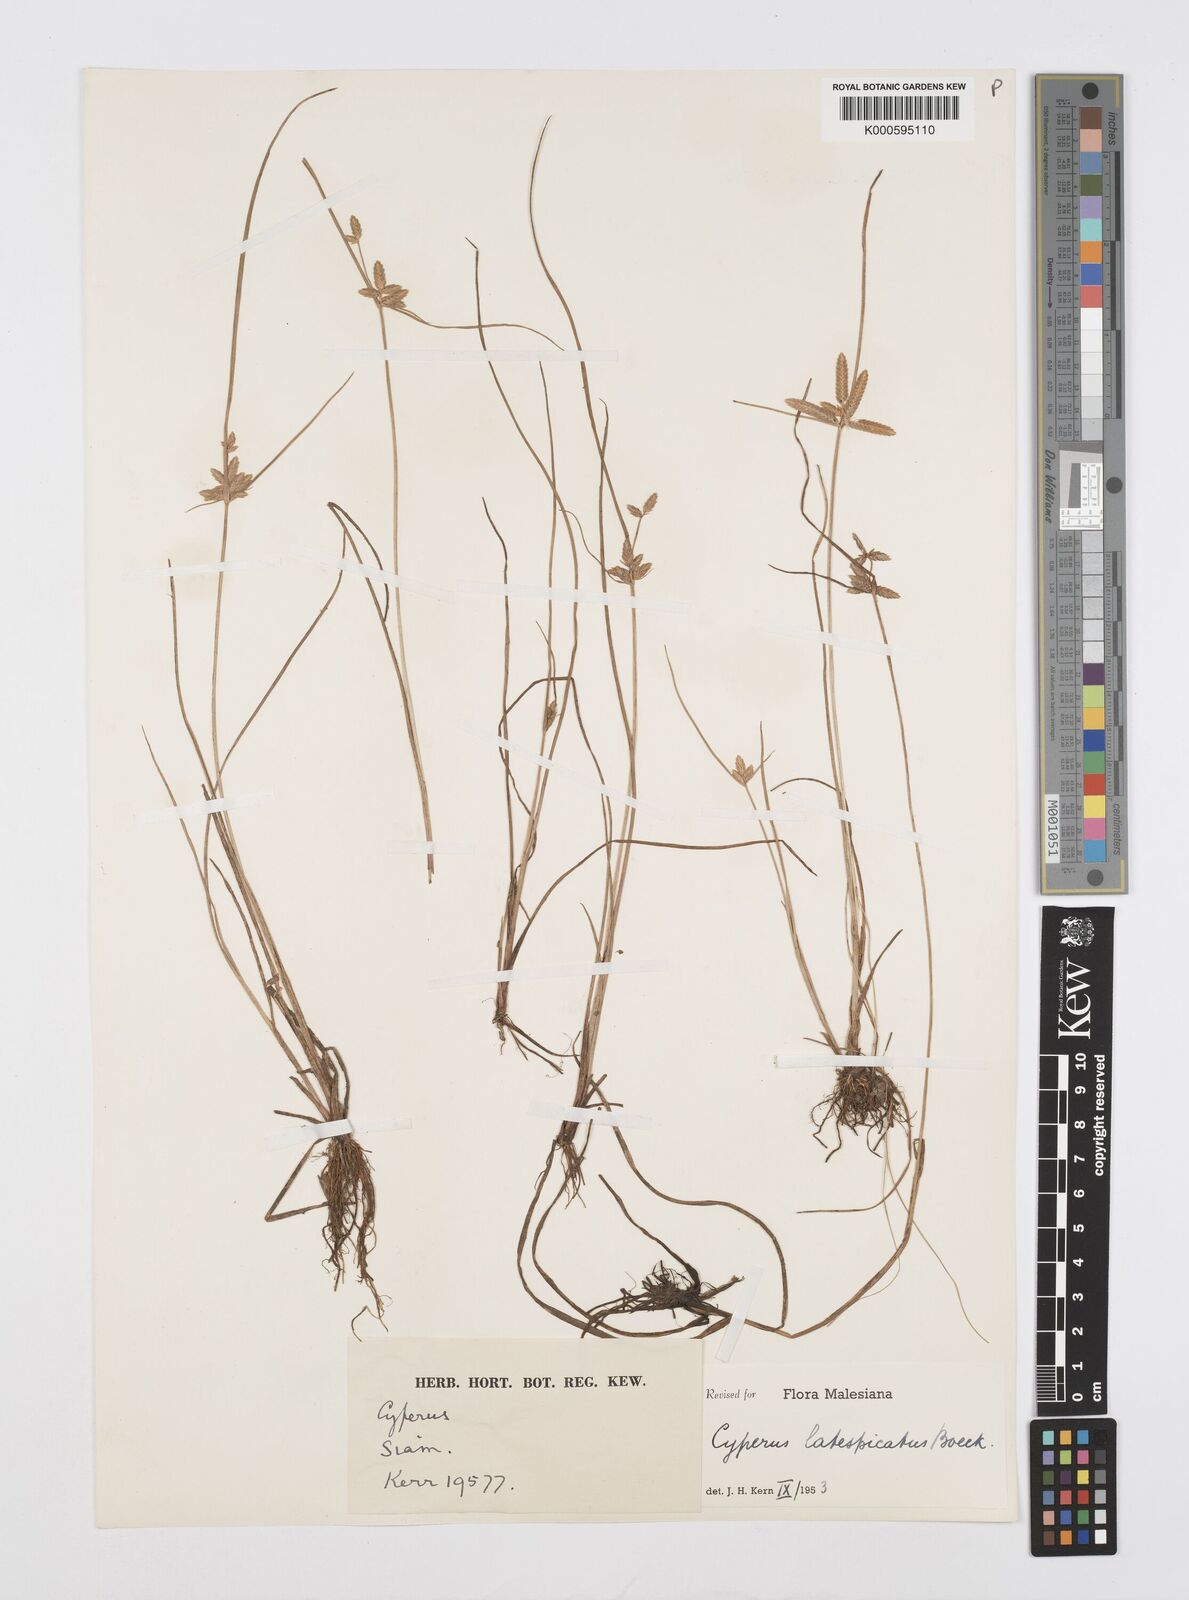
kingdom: Plantae
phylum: Tracheophyta
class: Liliopsida
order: Poales
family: Cyperaceae
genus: Cyperus
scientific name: Cyperus diaphanus
